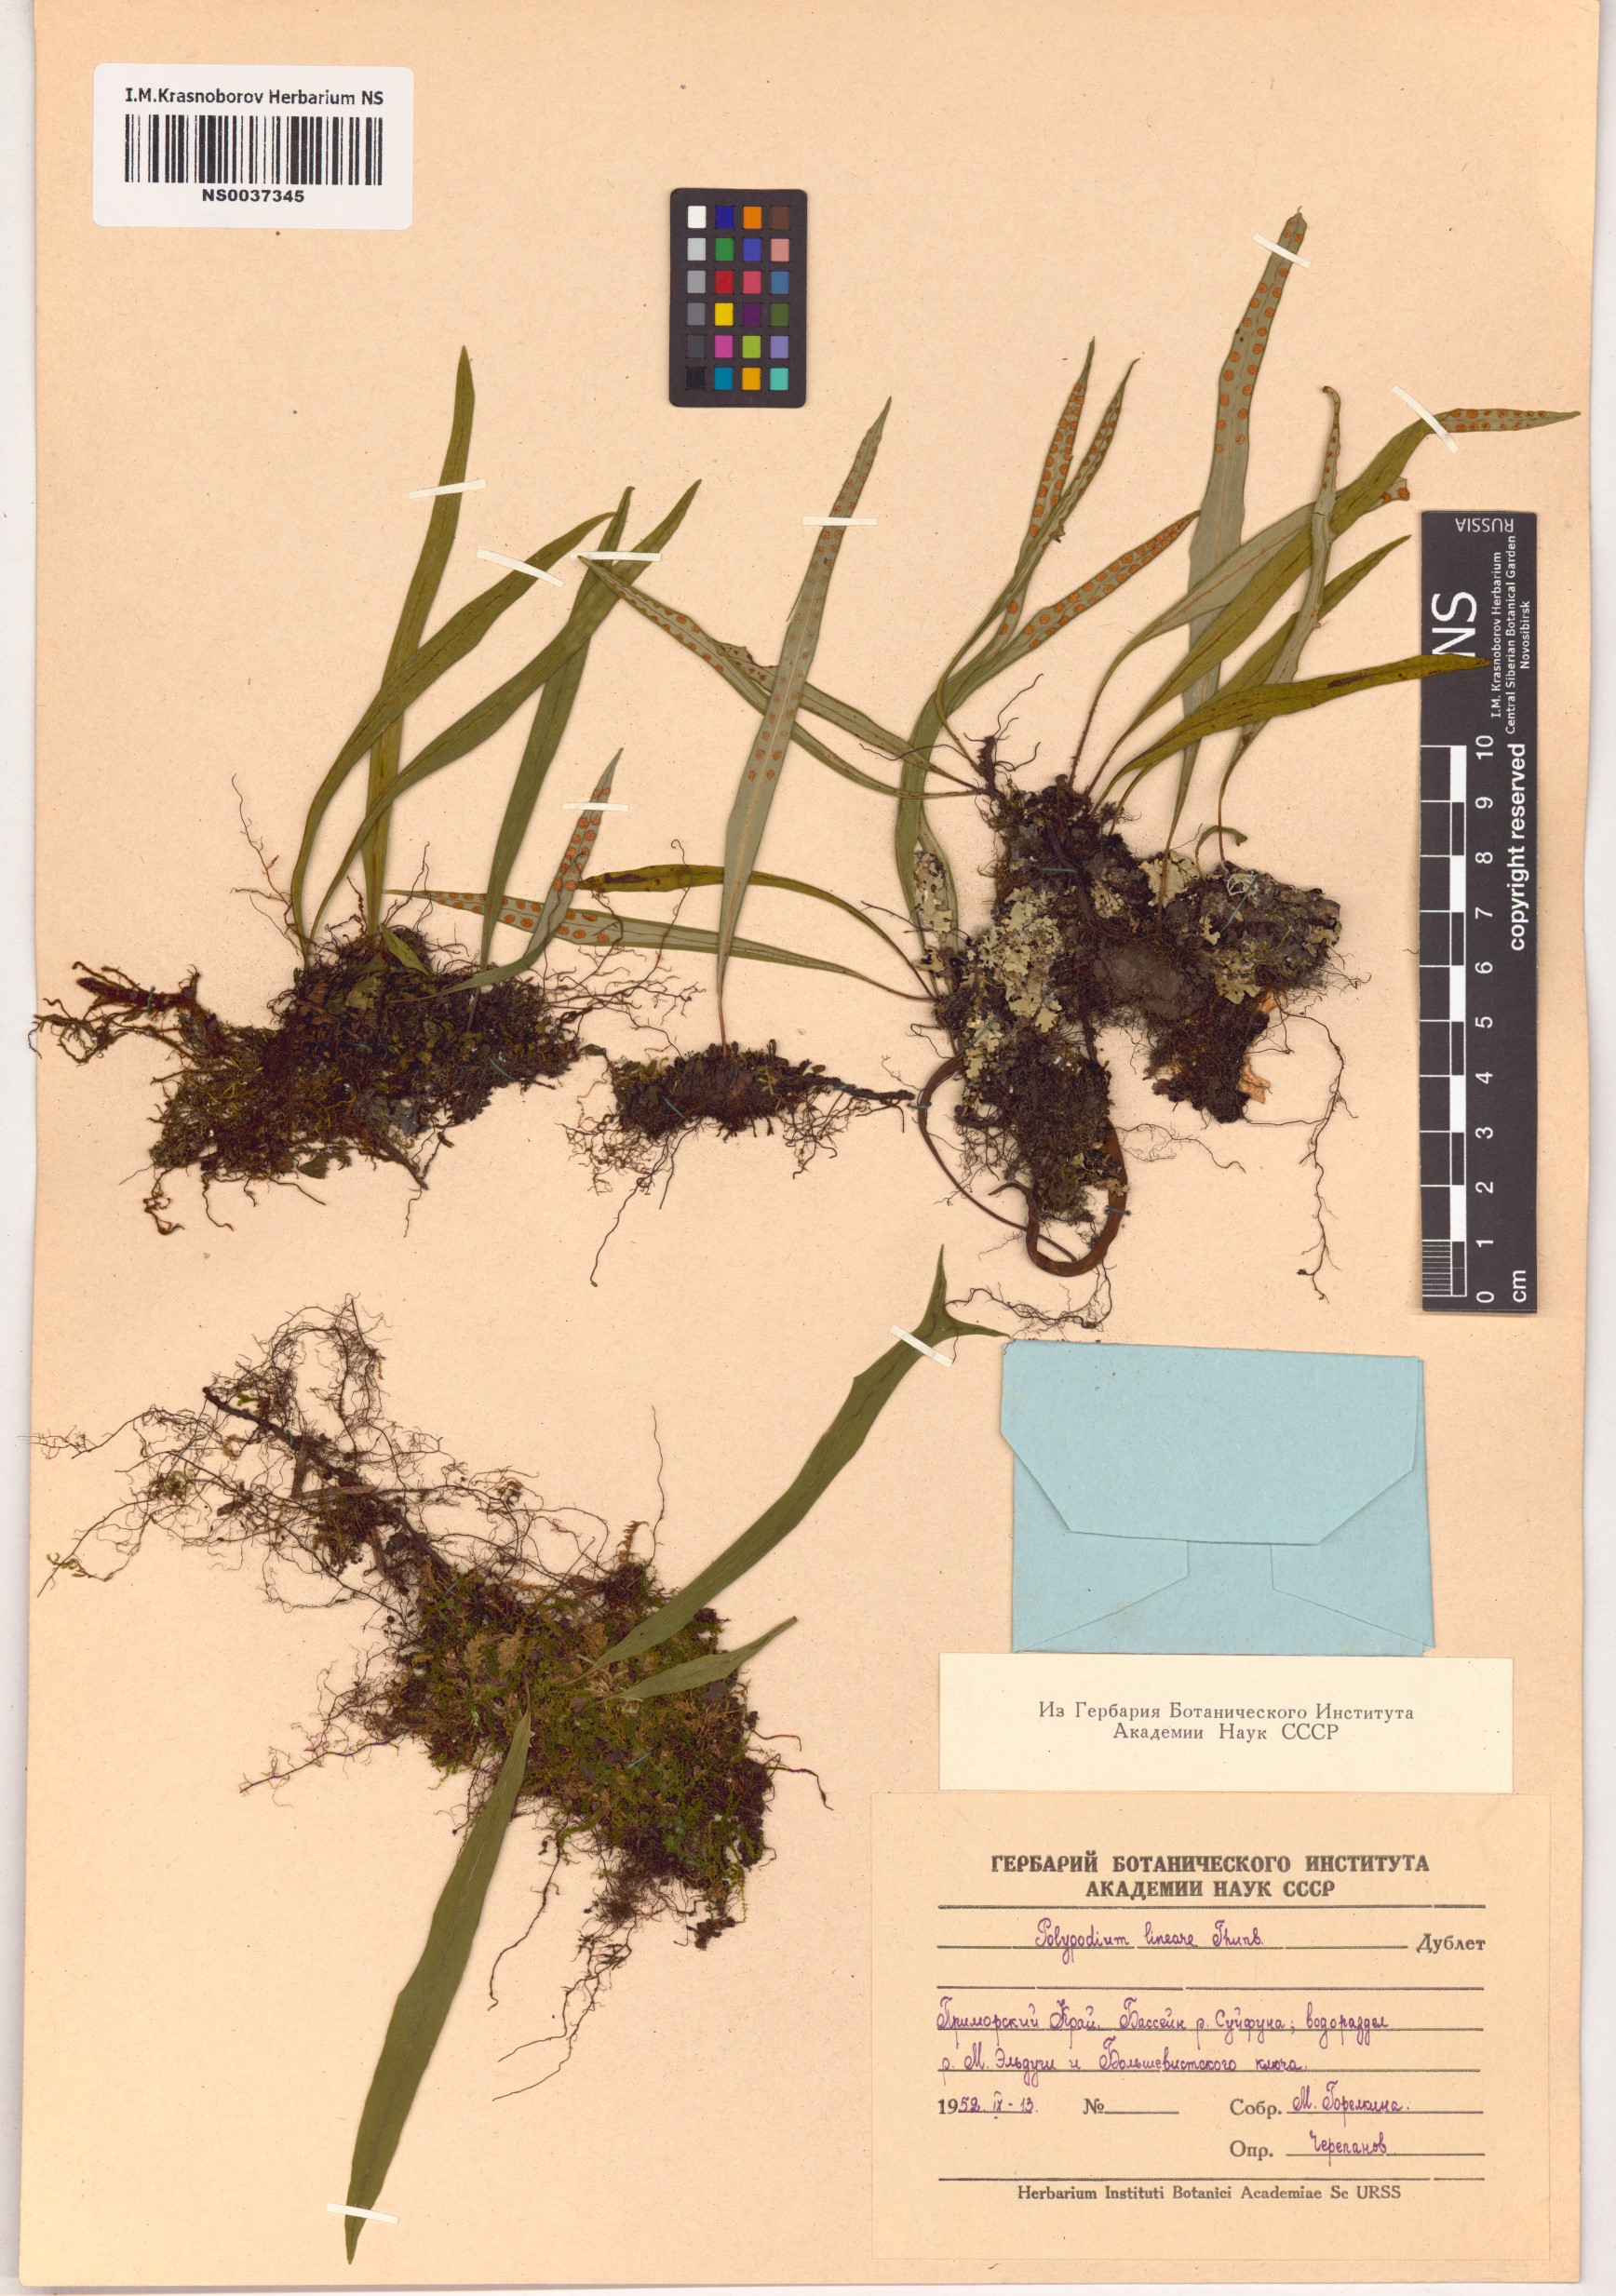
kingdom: Plantae
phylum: Tracheophyta
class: Polypodiopsida
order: Polypodiales
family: Polypodiaceae
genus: Lepisorus
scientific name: Lepisorus thunbergianus
